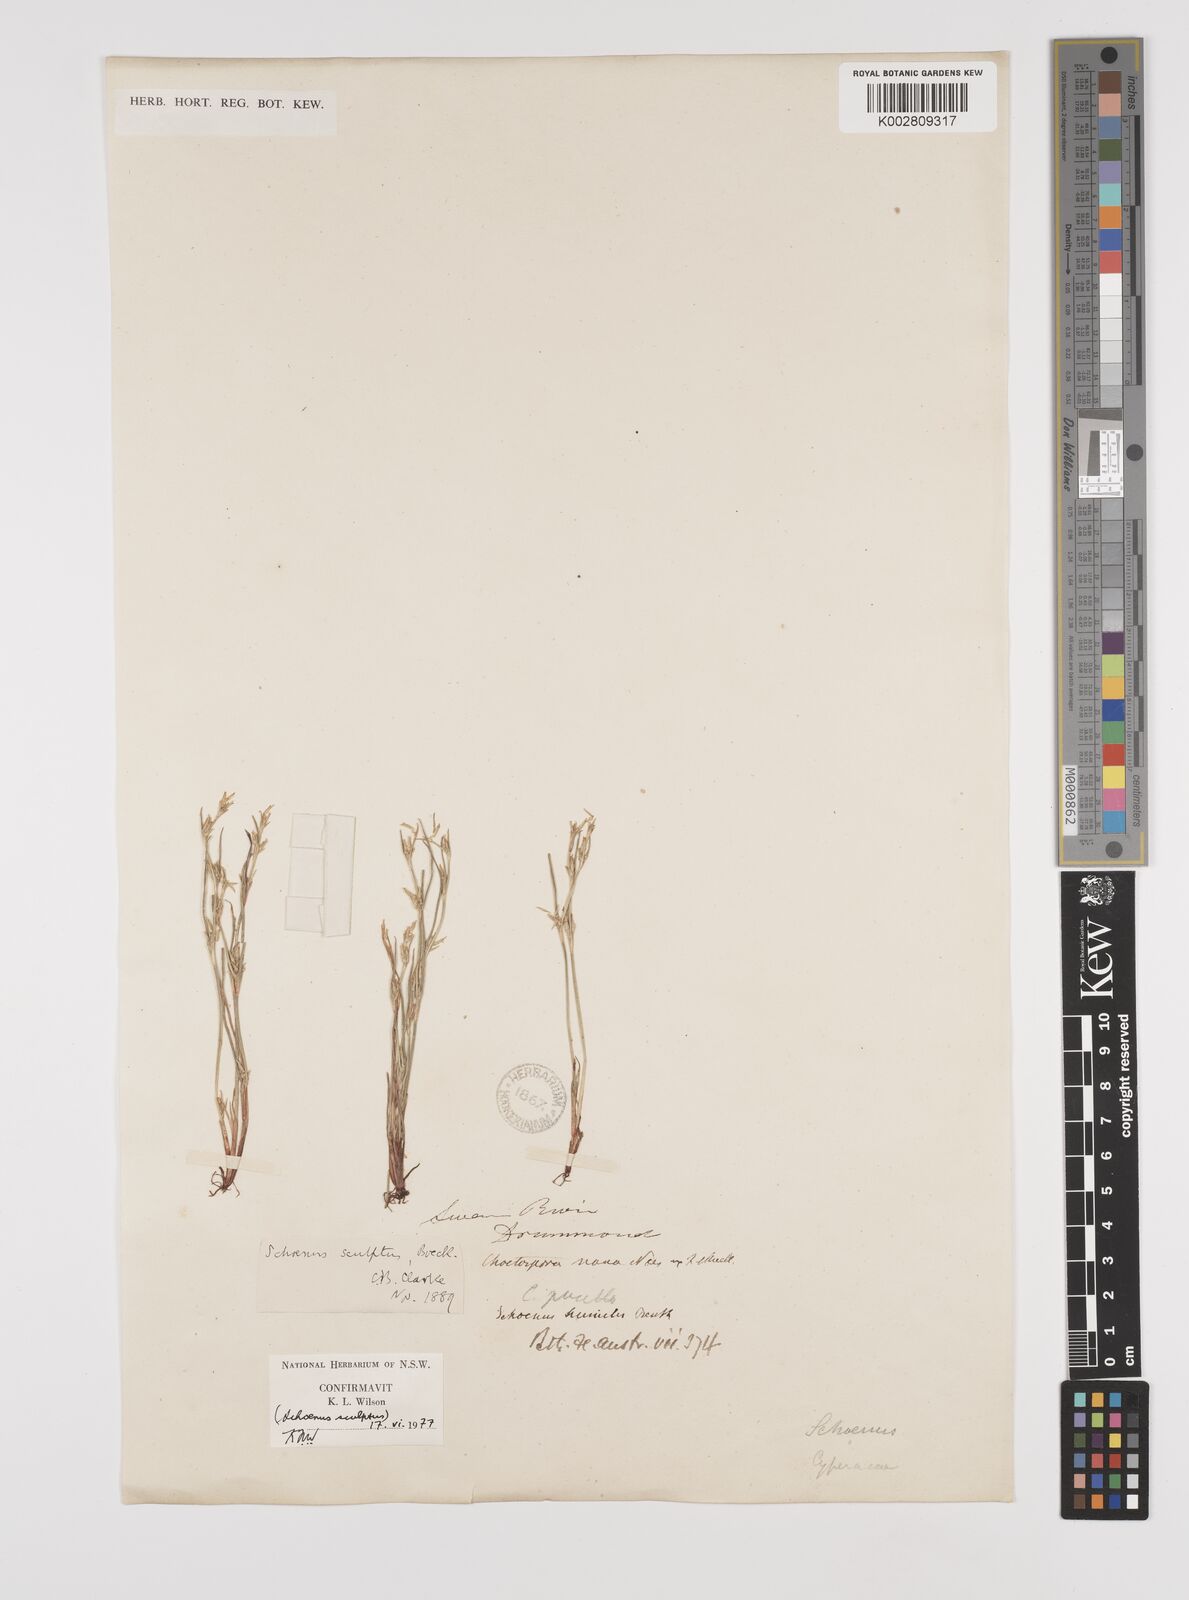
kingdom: Plantae
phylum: Tracheophyta
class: Liliopsida
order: Poales
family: Cyperaceae
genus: Schoenus
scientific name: Schoenus sculptus
